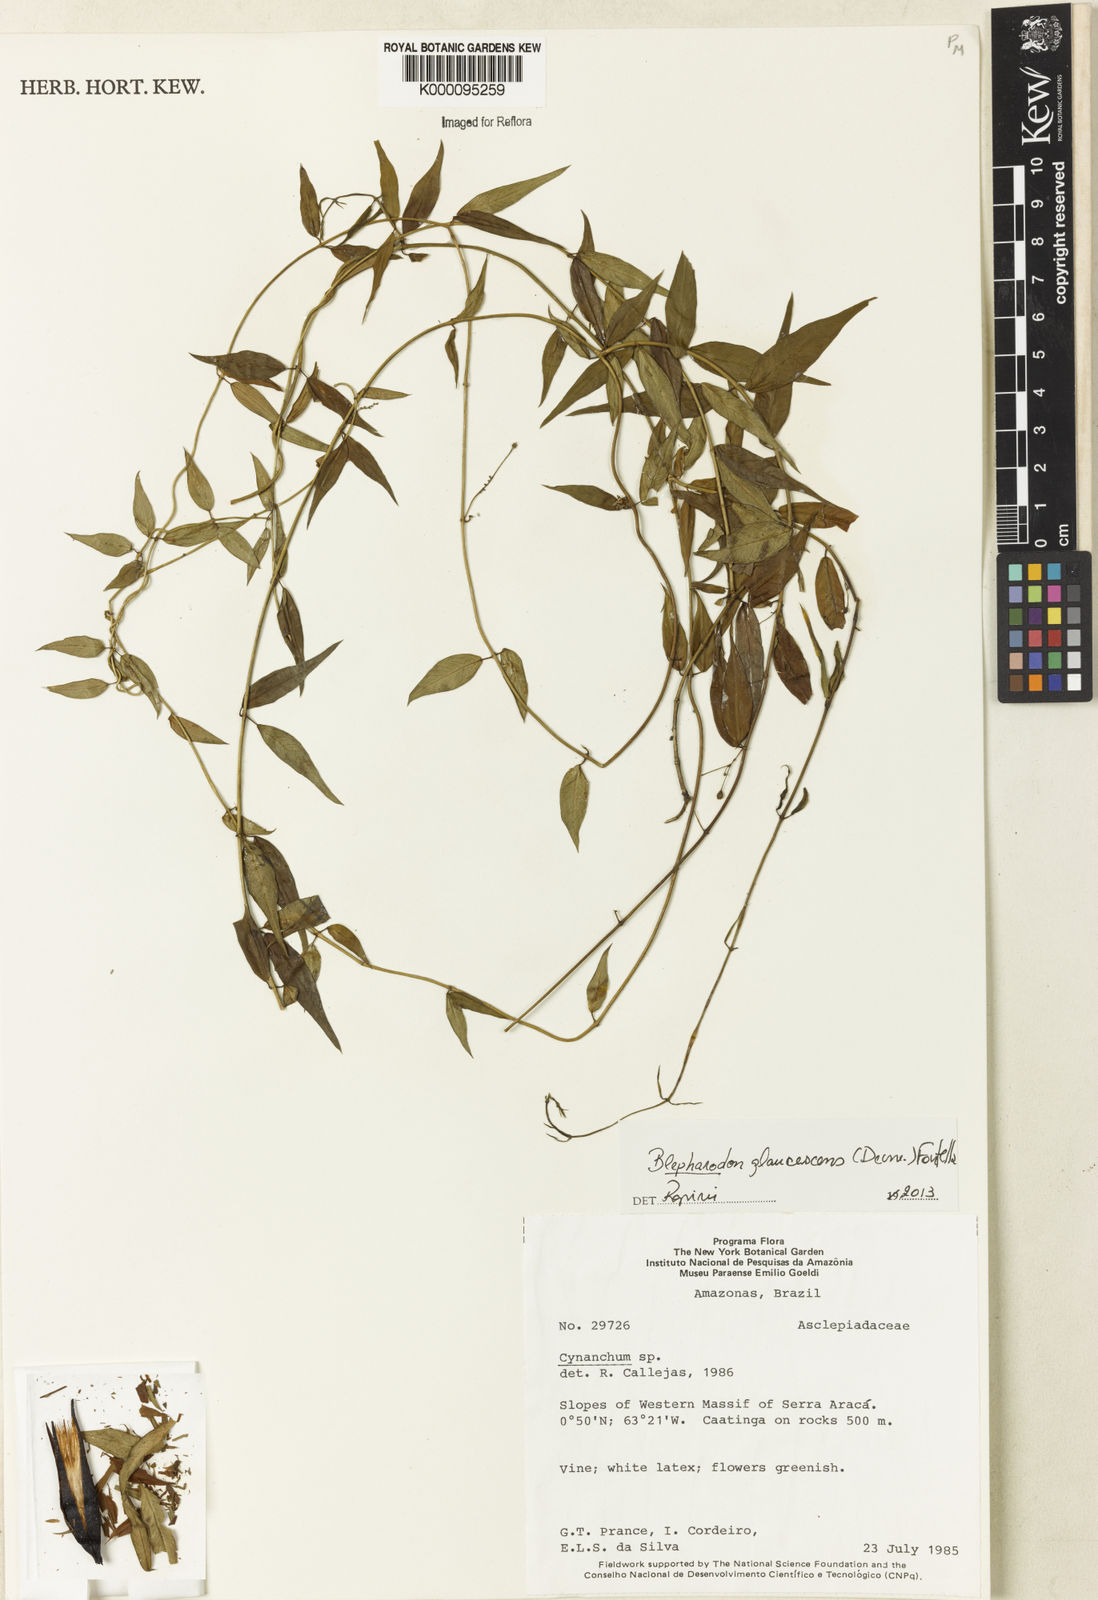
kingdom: Plantae
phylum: Tracheophyta
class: Magnoliopsida
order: Gentianales
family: Apocynaceae
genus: Blepharodon
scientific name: Blepharodon glaucescens
